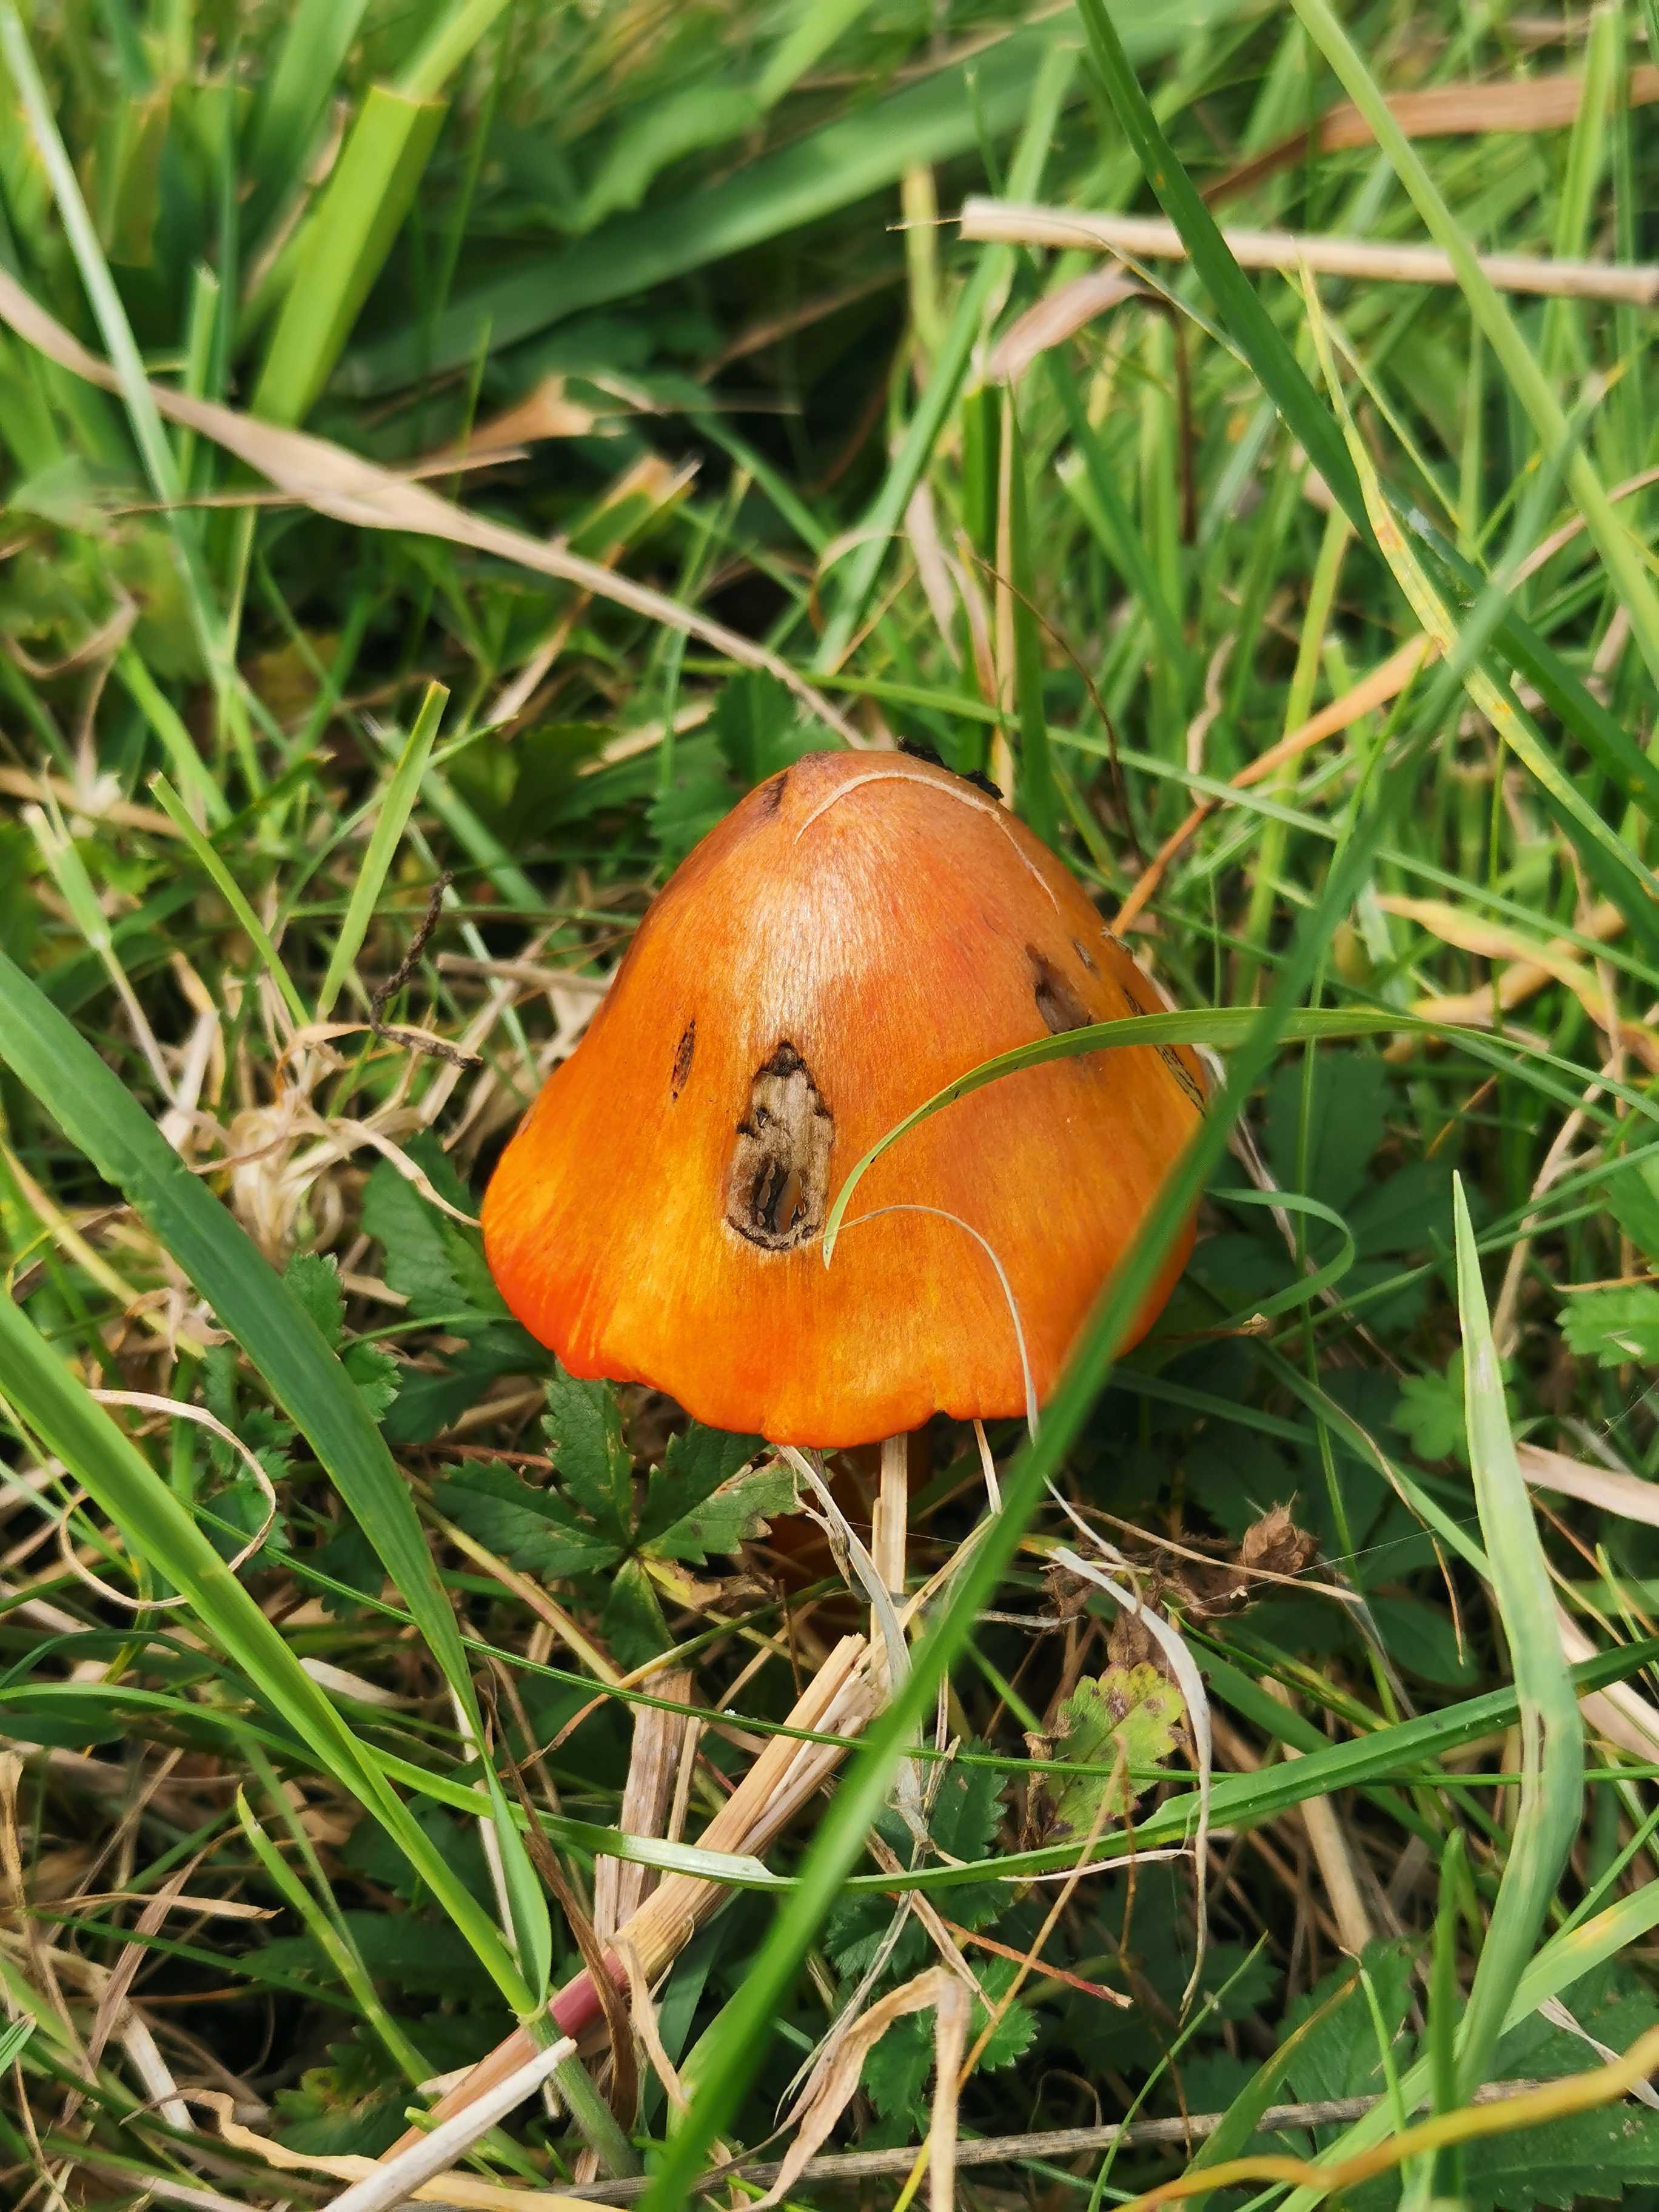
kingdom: Fungi
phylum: Basidiomycota
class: Agaricomycetes
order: Agaricales
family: Hygrophoraceae
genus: Hygrocybe
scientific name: Hygrocybe conica
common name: kegle-vokshat
